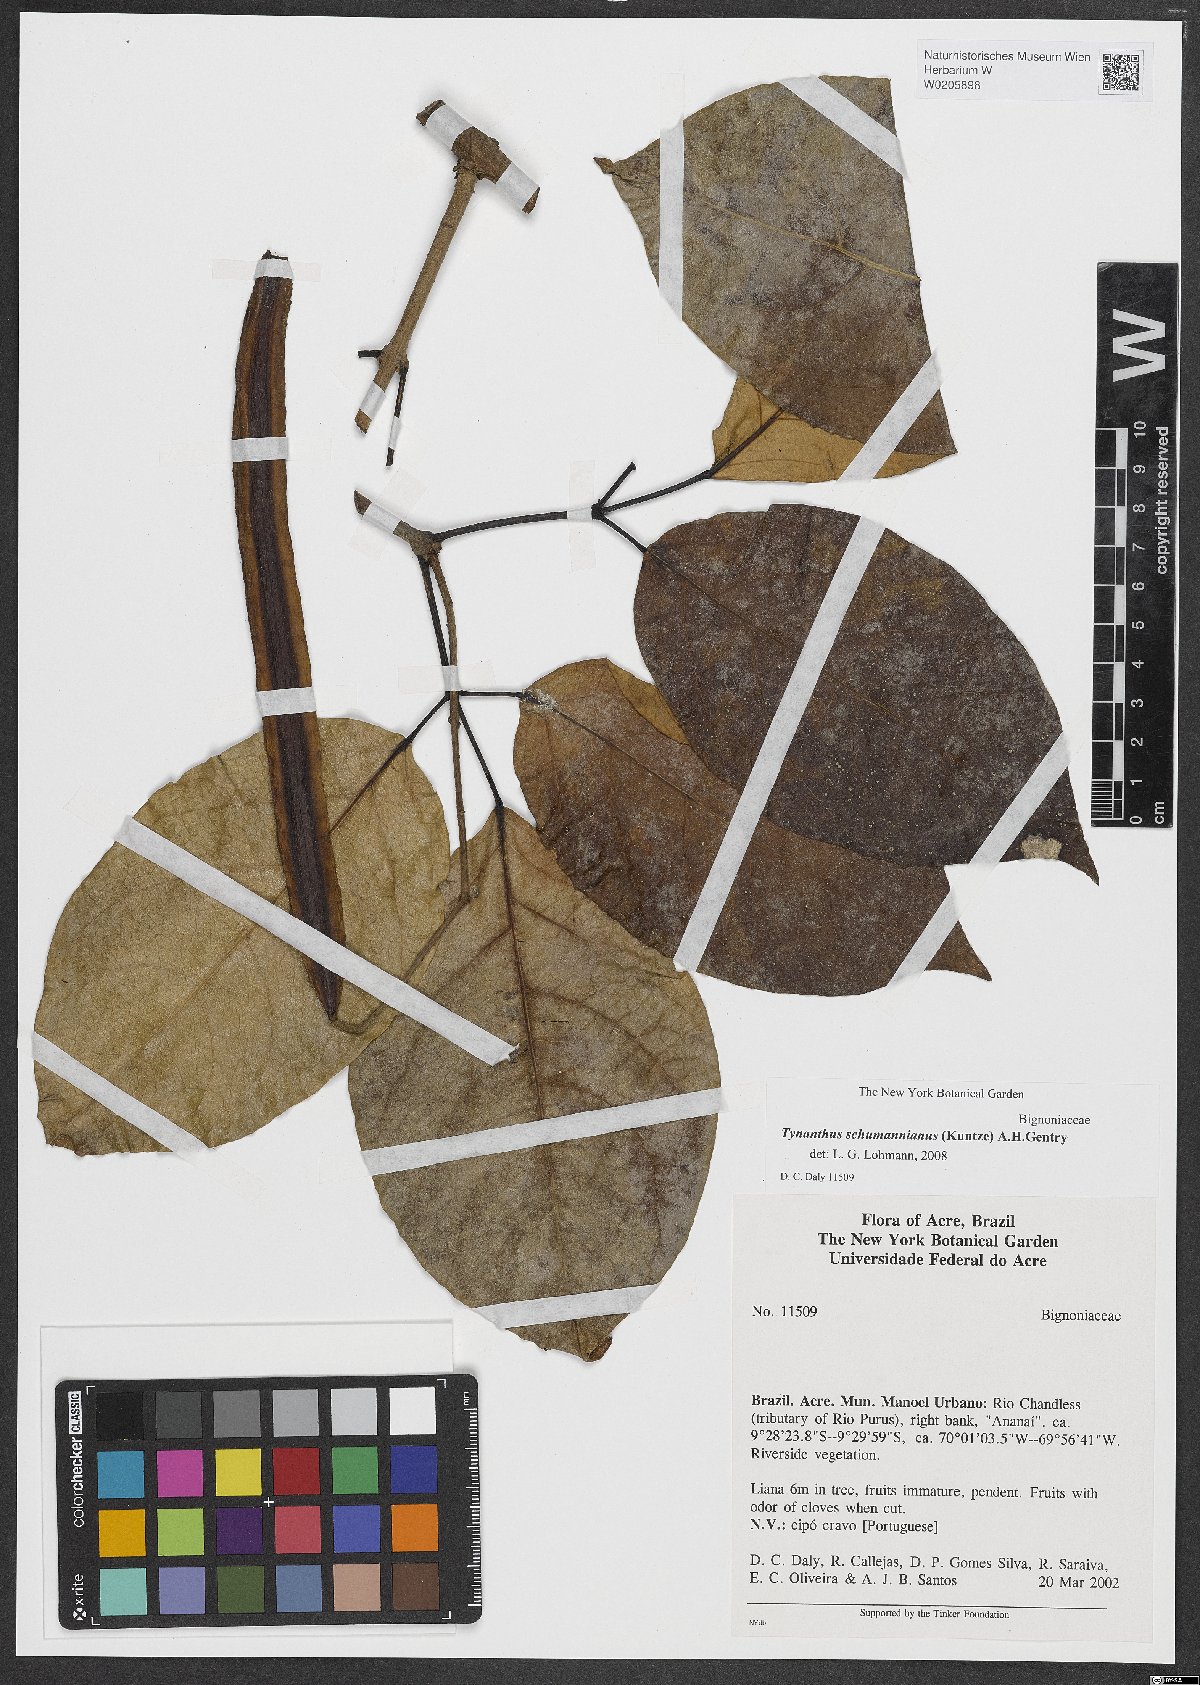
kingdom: Plantae
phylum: Tracheophyta
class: Magnoliopsida
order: Lamiales
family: Bignoniaceae
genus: Tynanthus
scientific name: Tynanthus schumannianus
